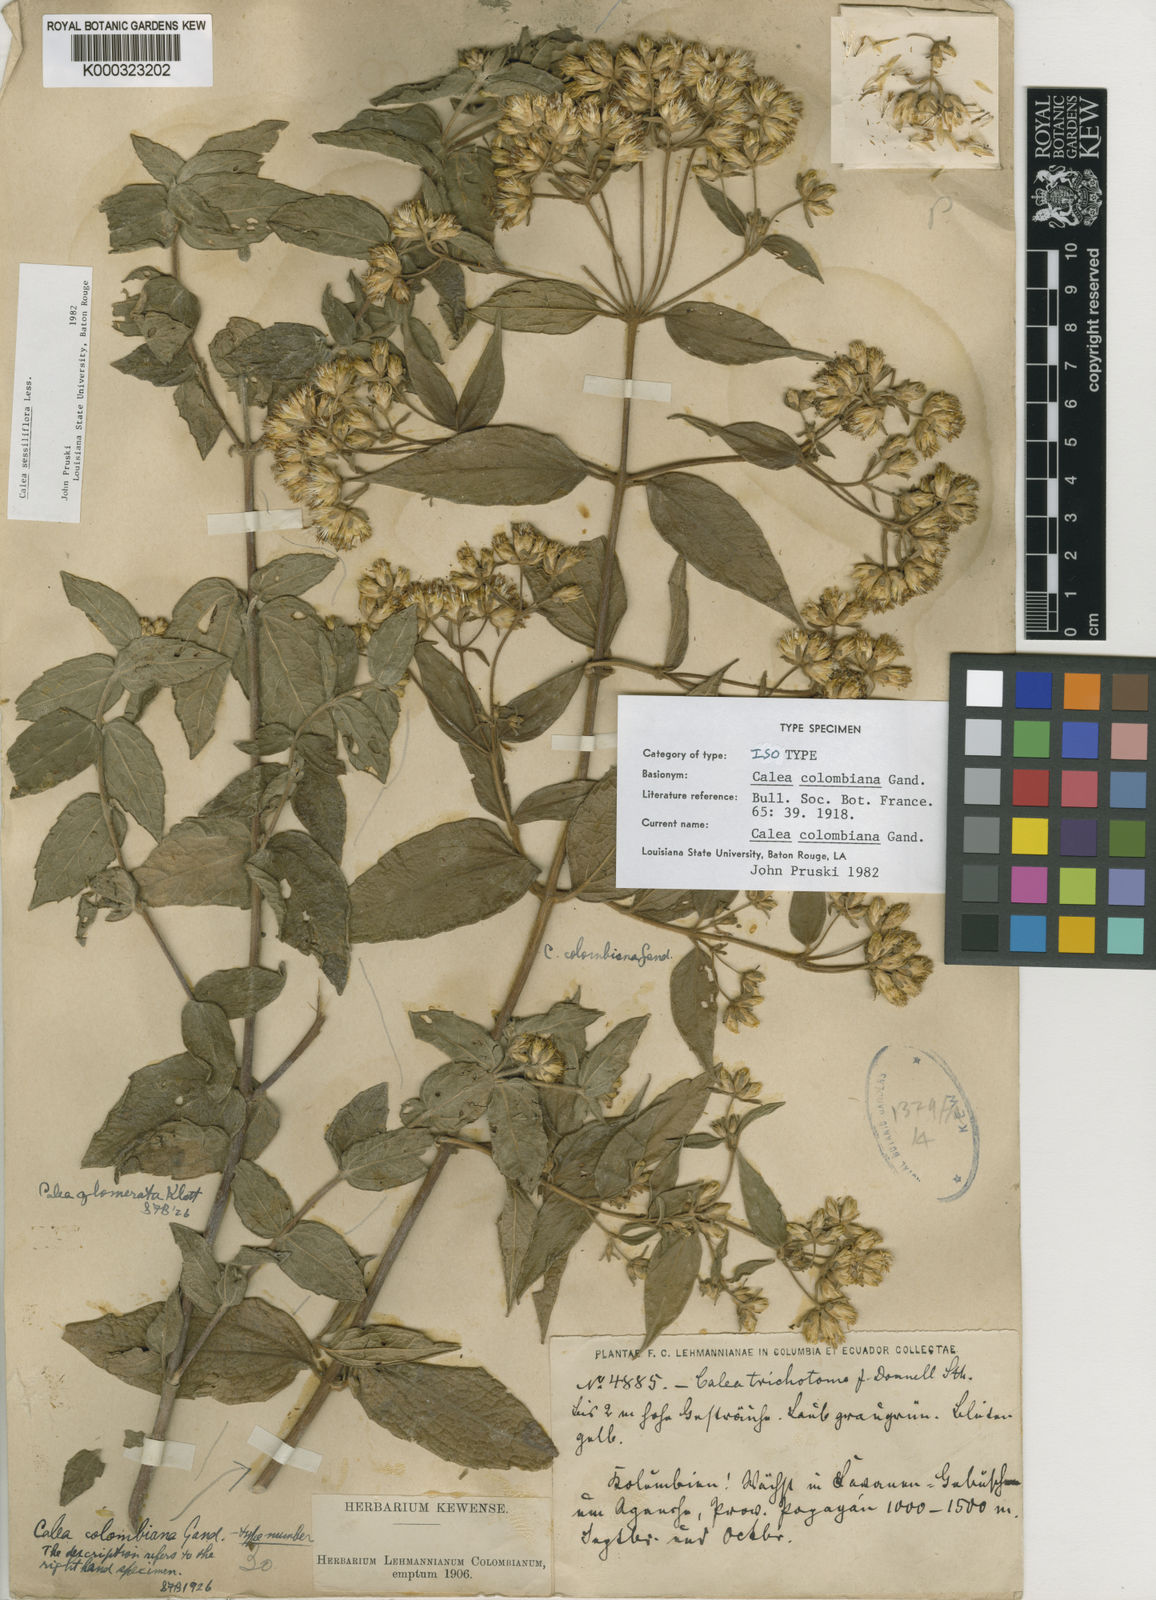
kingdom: Plantae
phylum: Tracheophyta
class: Magnoliopsida
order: Asterales
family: Asteraceae
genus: Calea
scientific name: Calea colombiana
